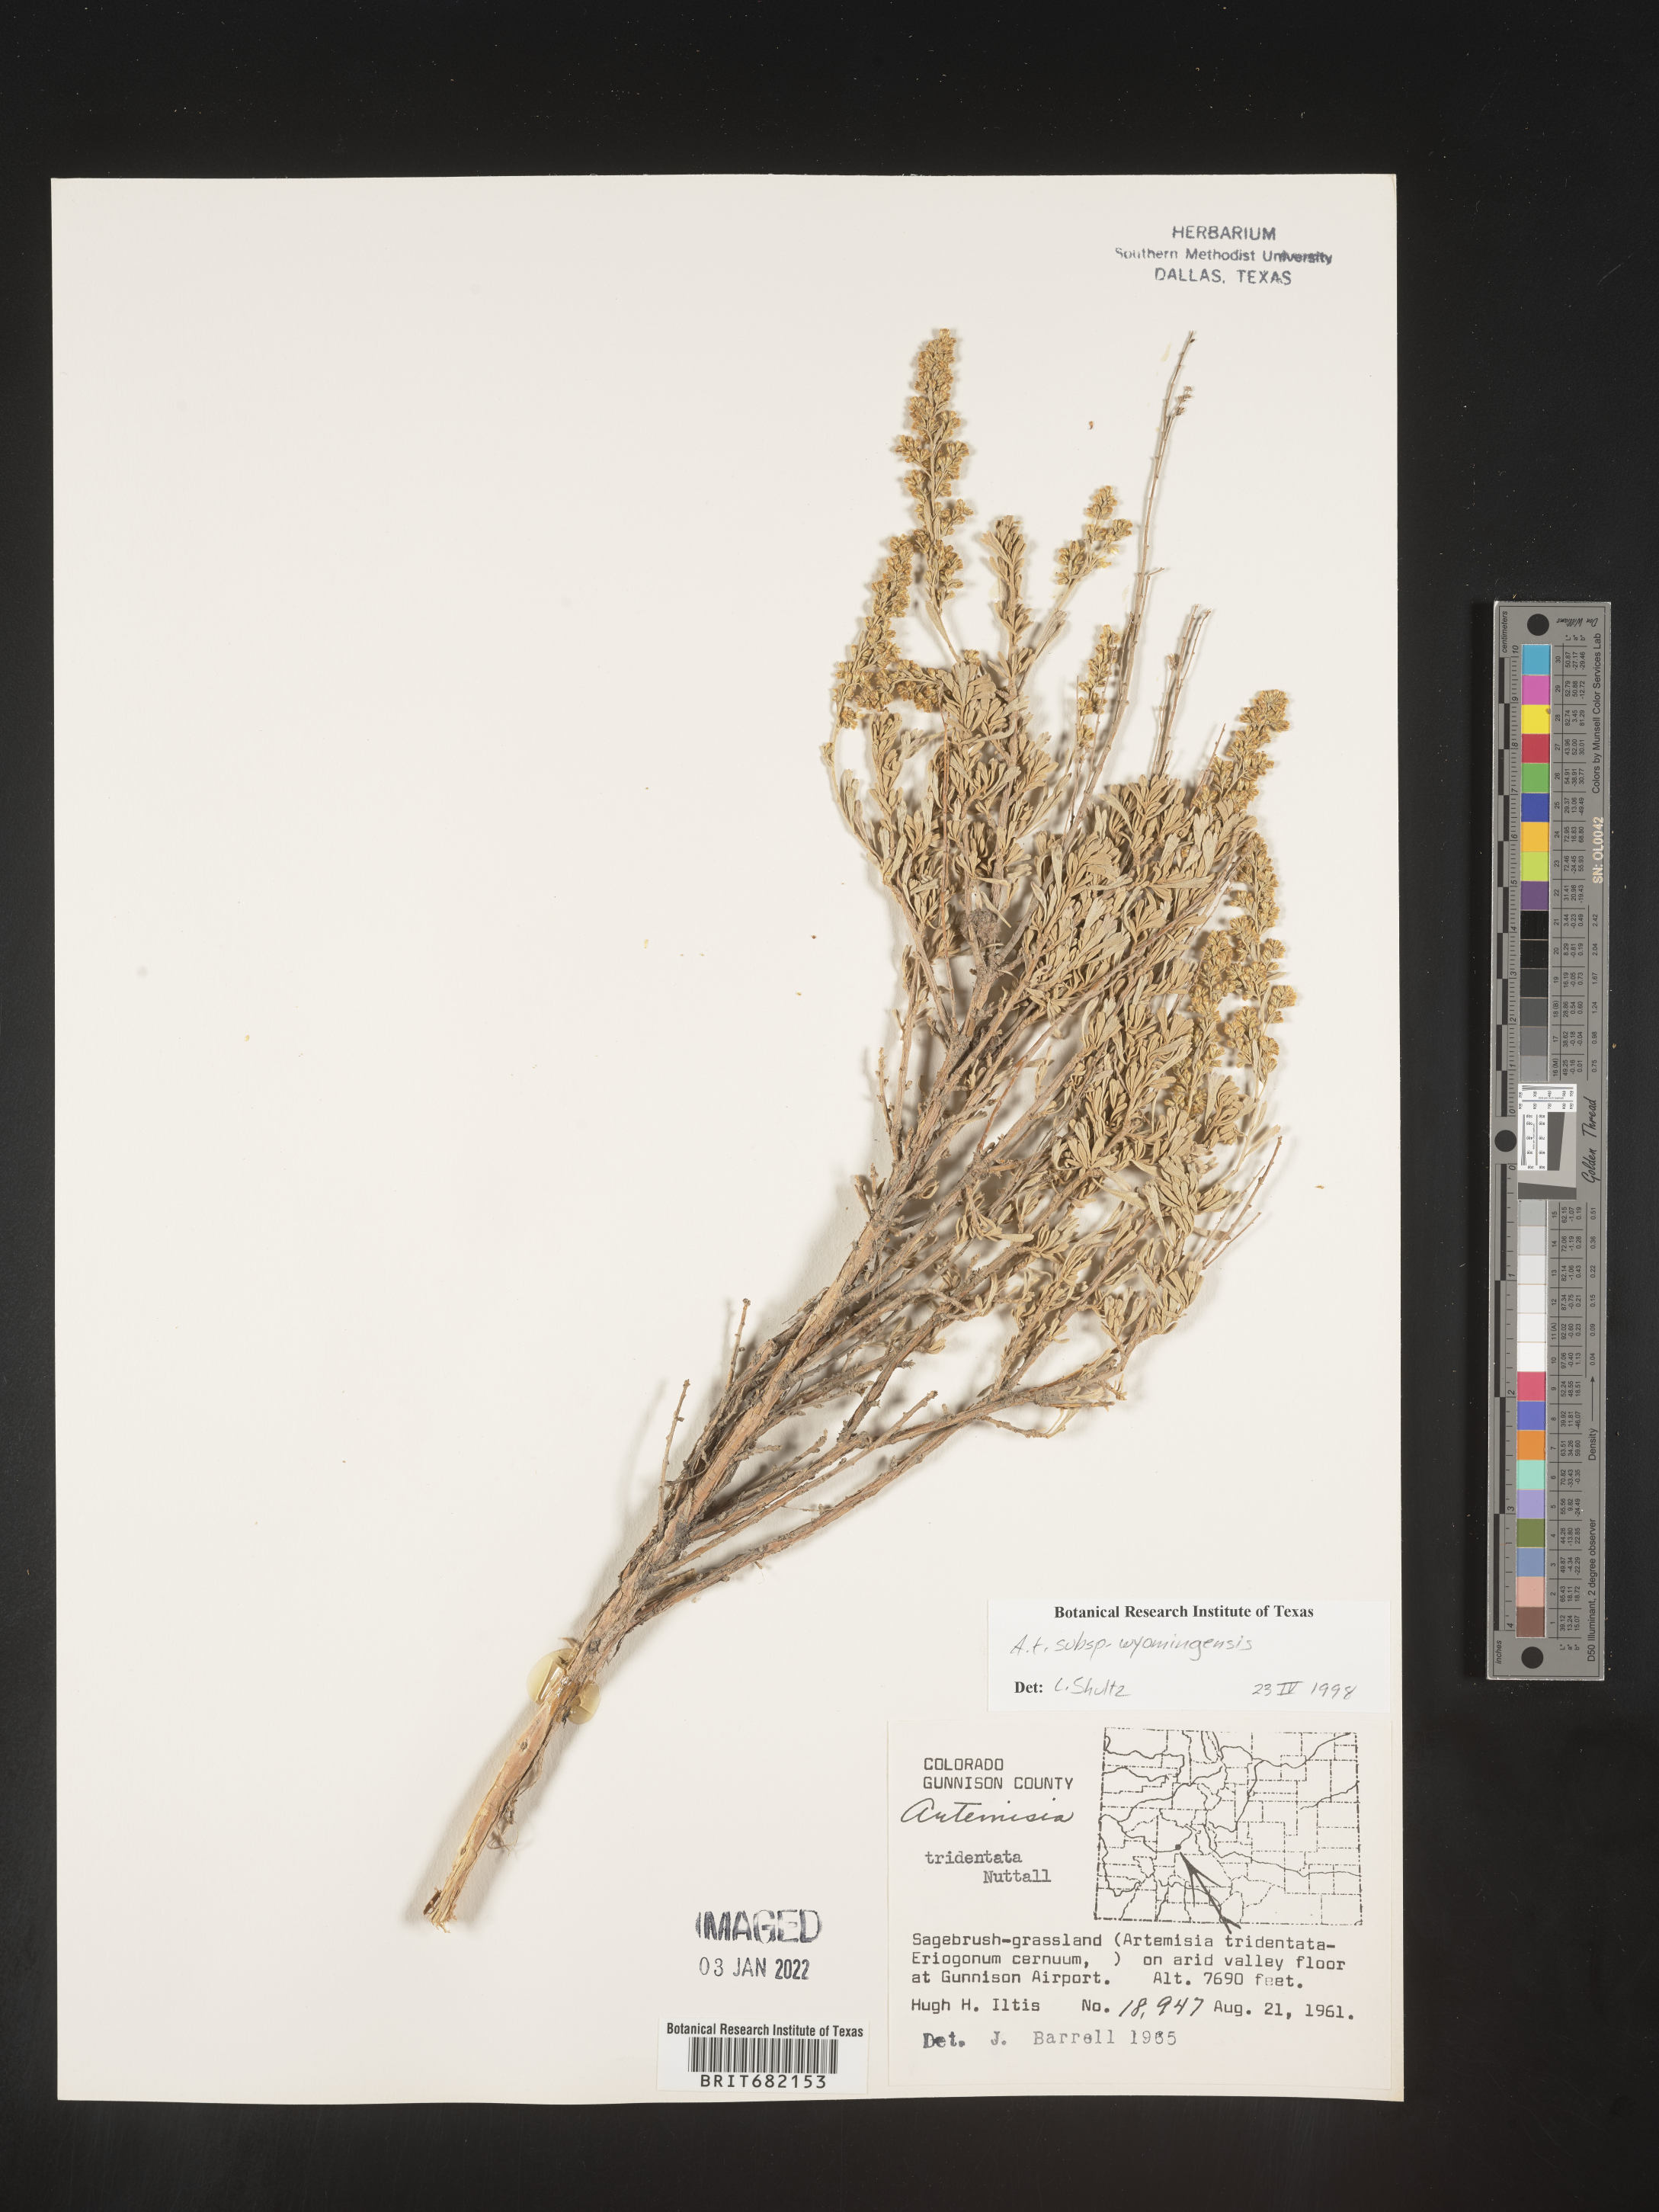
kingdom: Plantae
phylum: Tracheophyta
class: Magnoliopsida
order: Asterales
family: Asteraceae
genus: Artemisia
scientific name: Artemisia tridentata
